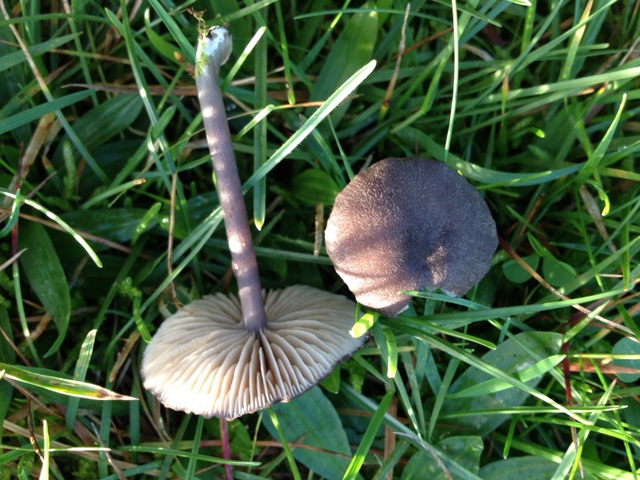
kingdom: Fungi
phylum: Basidiomycota
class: Agaricomycetes
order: Agaricales
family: Entolomataceae
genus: Entoloma
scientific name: Entoloma
